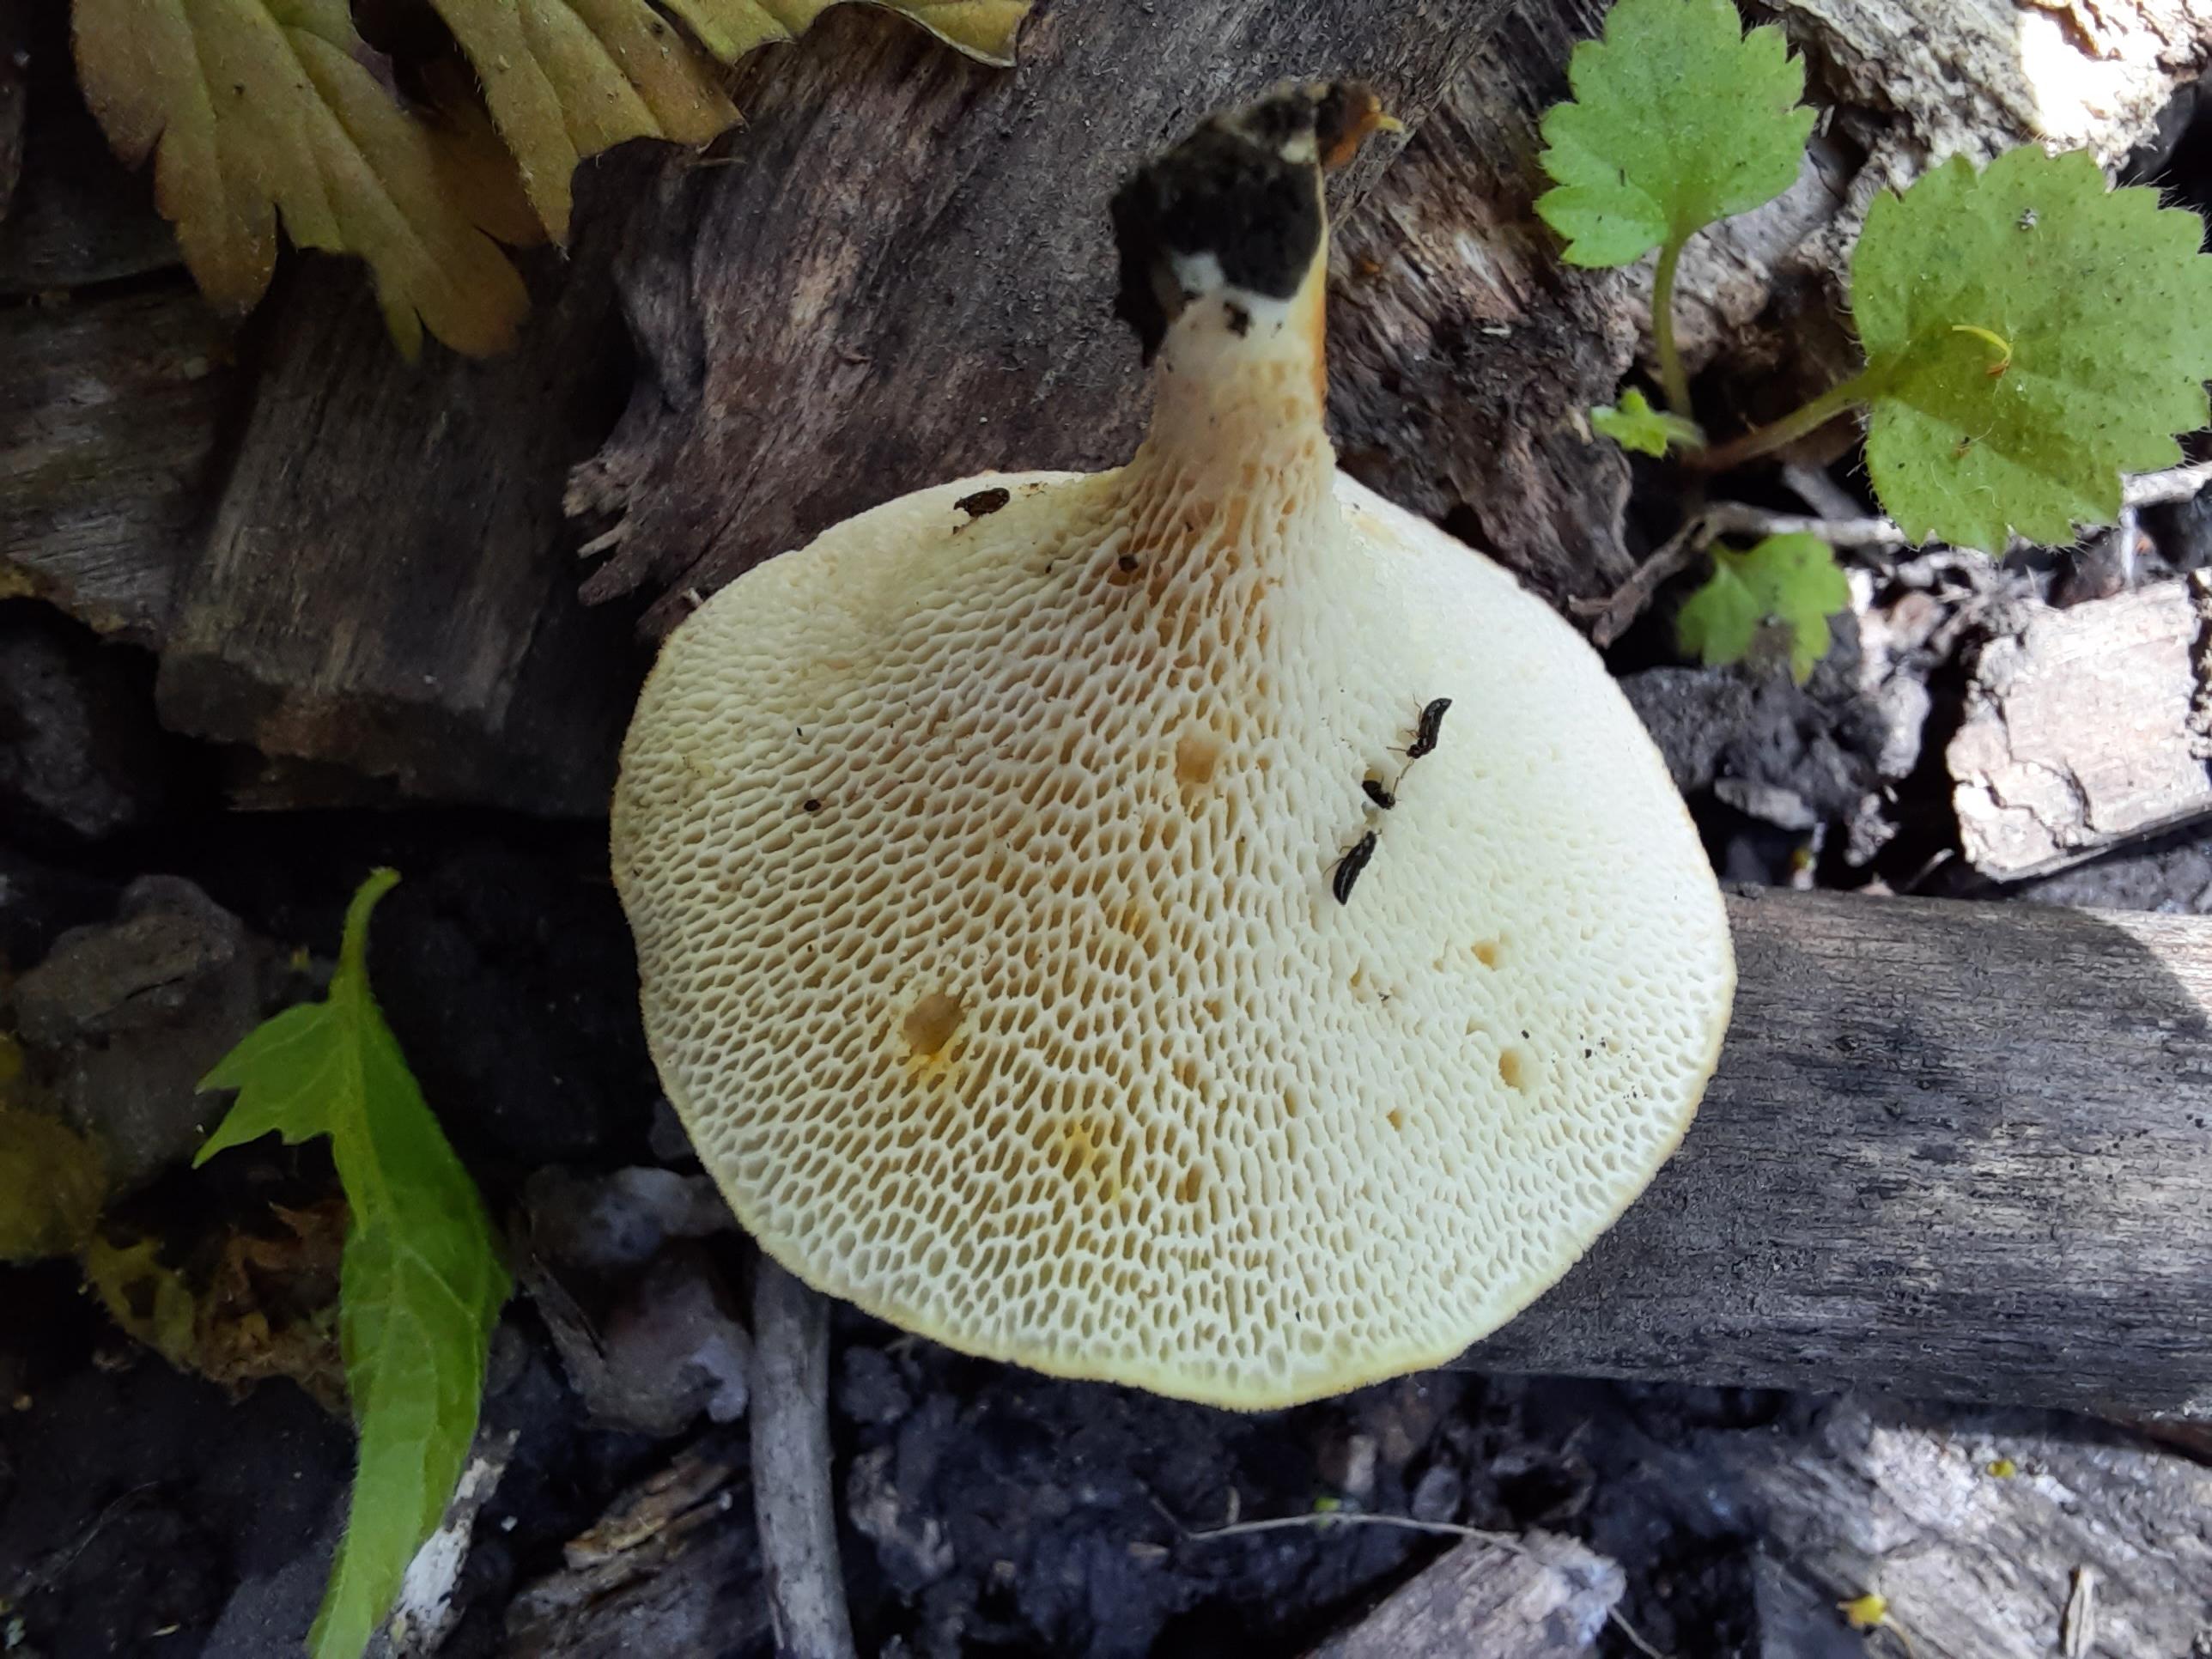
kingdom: Fungi
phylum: Basidiomycota
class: Agaricomycetes
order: Polyporales
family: Polyporaceae
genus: Neofavolus
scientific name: Neofavolus alveolaris
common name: Hexagonal-pored polypore
